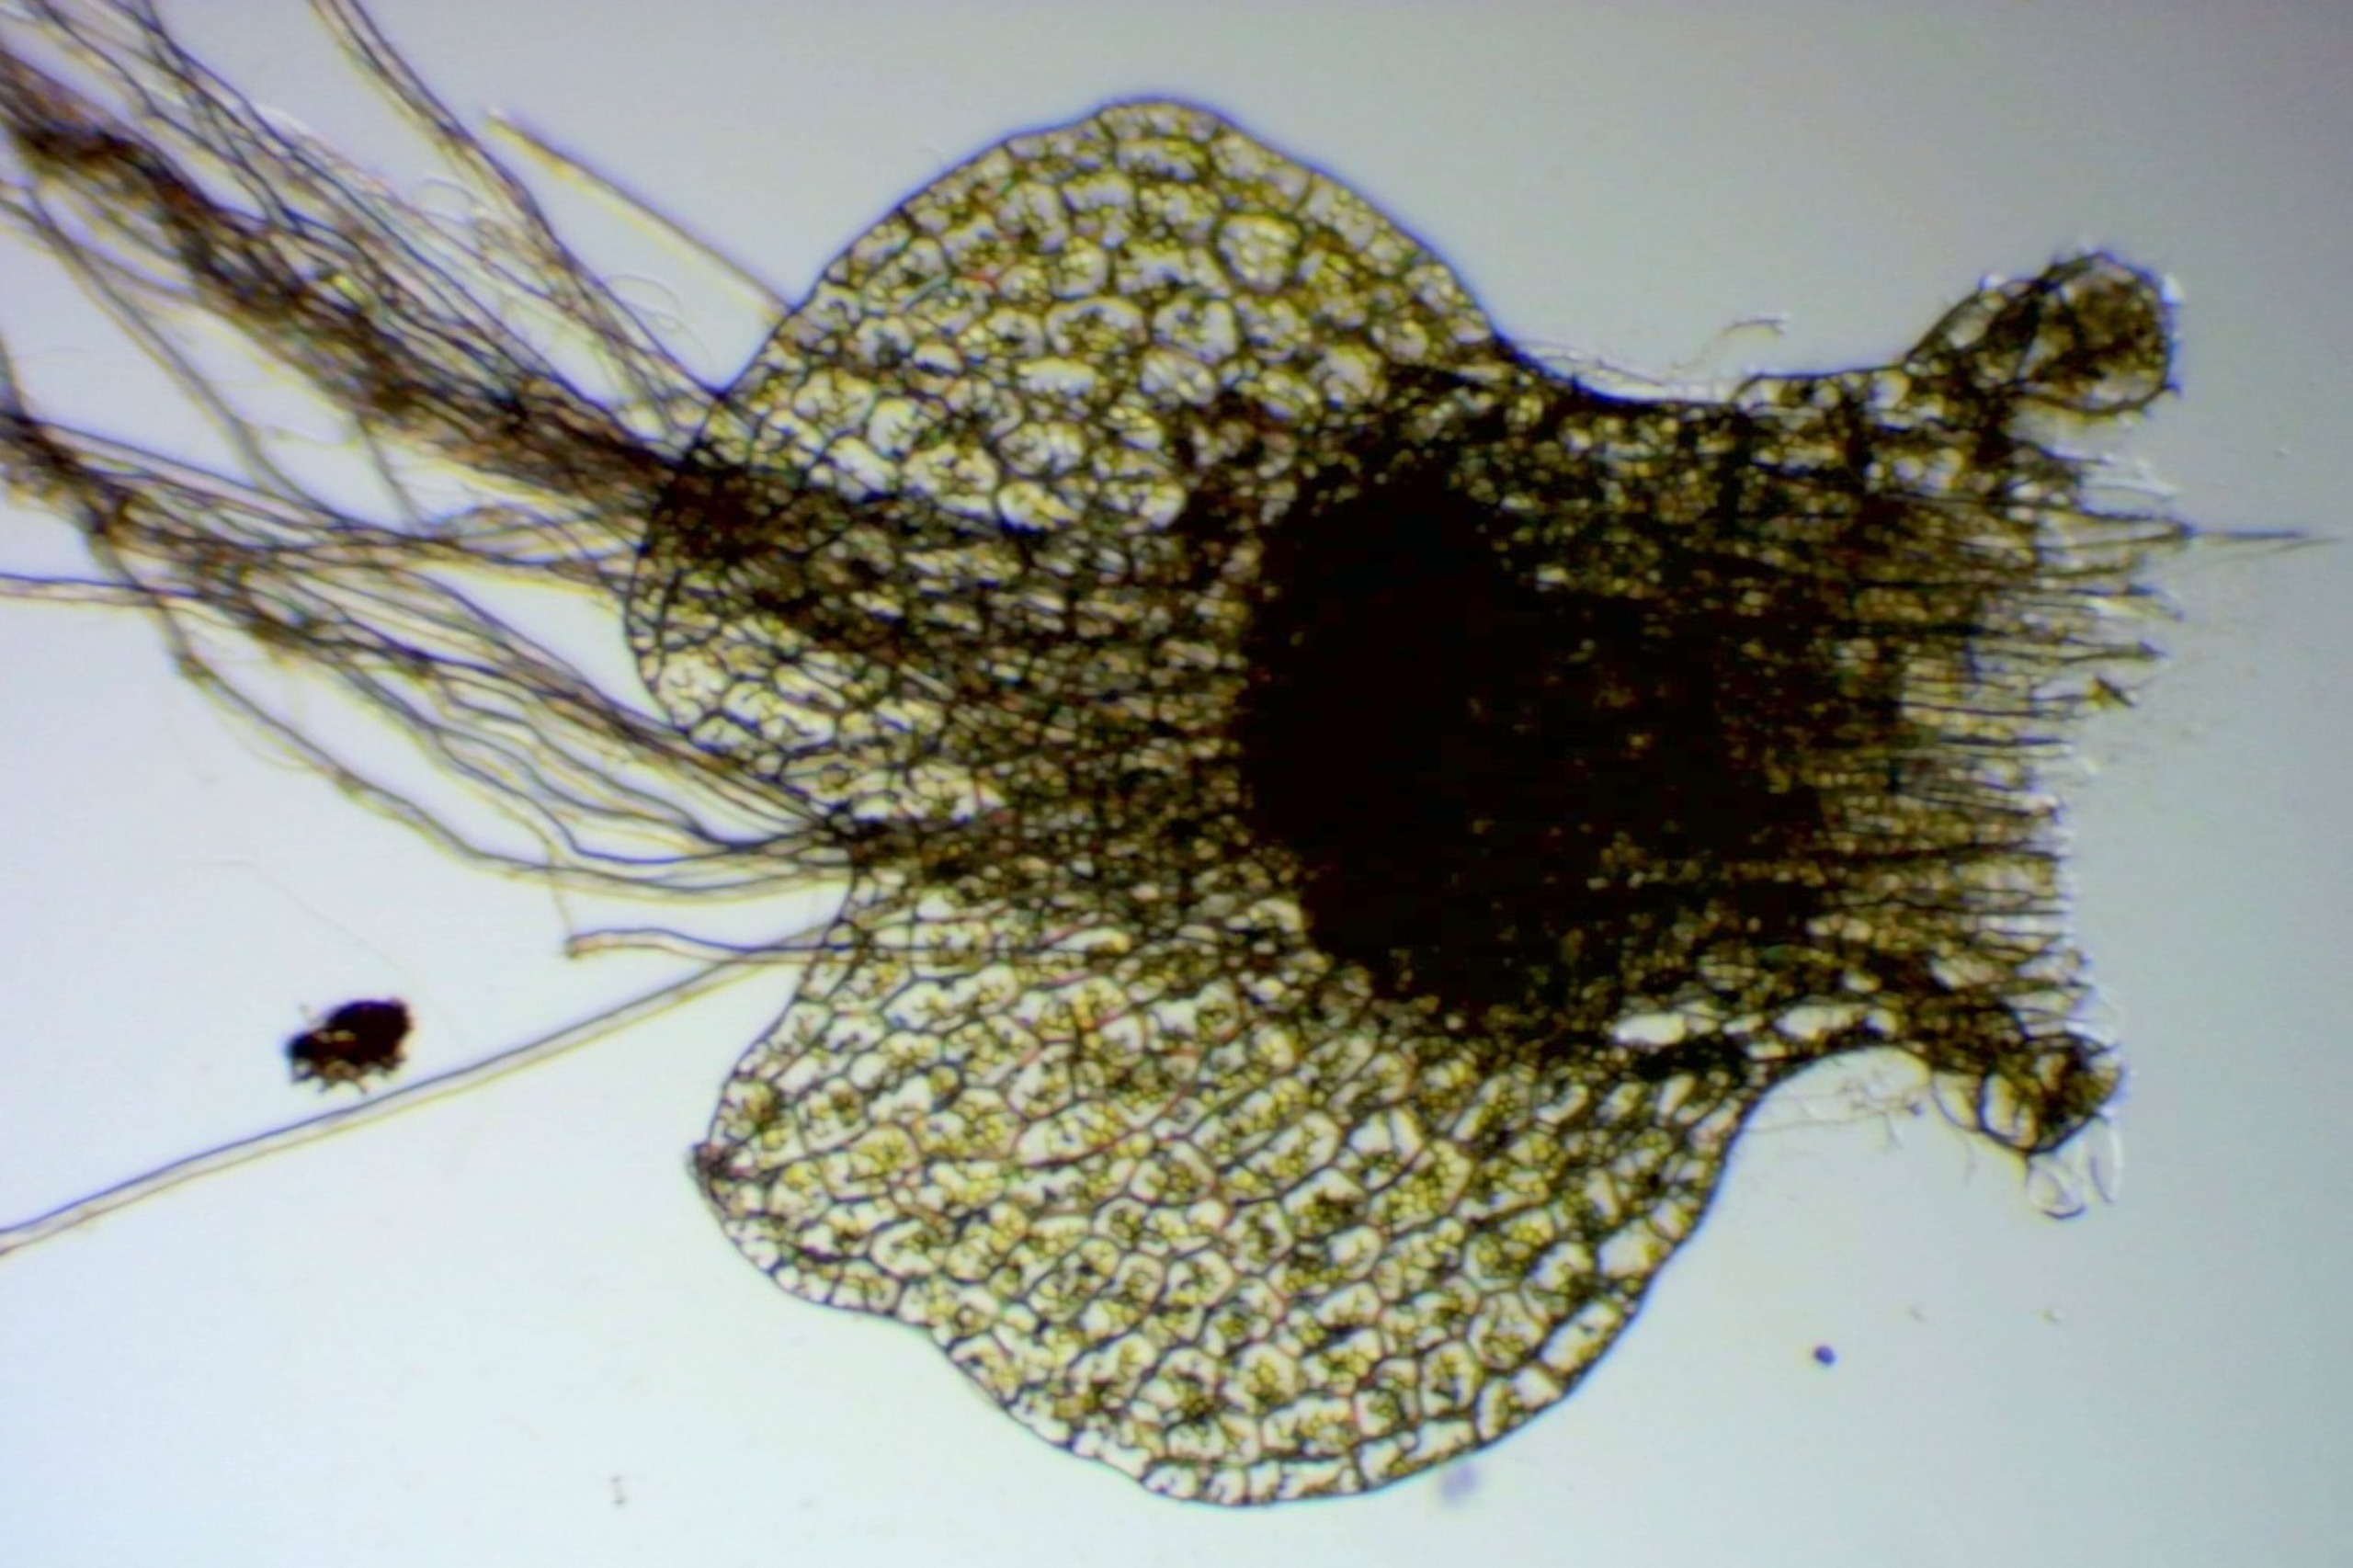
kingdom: Plantae
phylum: Marchantiophyta
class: Jungermanniopsida
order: Jungermanniales
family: Calypogeiaceae
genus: Calypogeia
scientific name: Calypogeia muelleriana
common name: Almindelig sækmos
